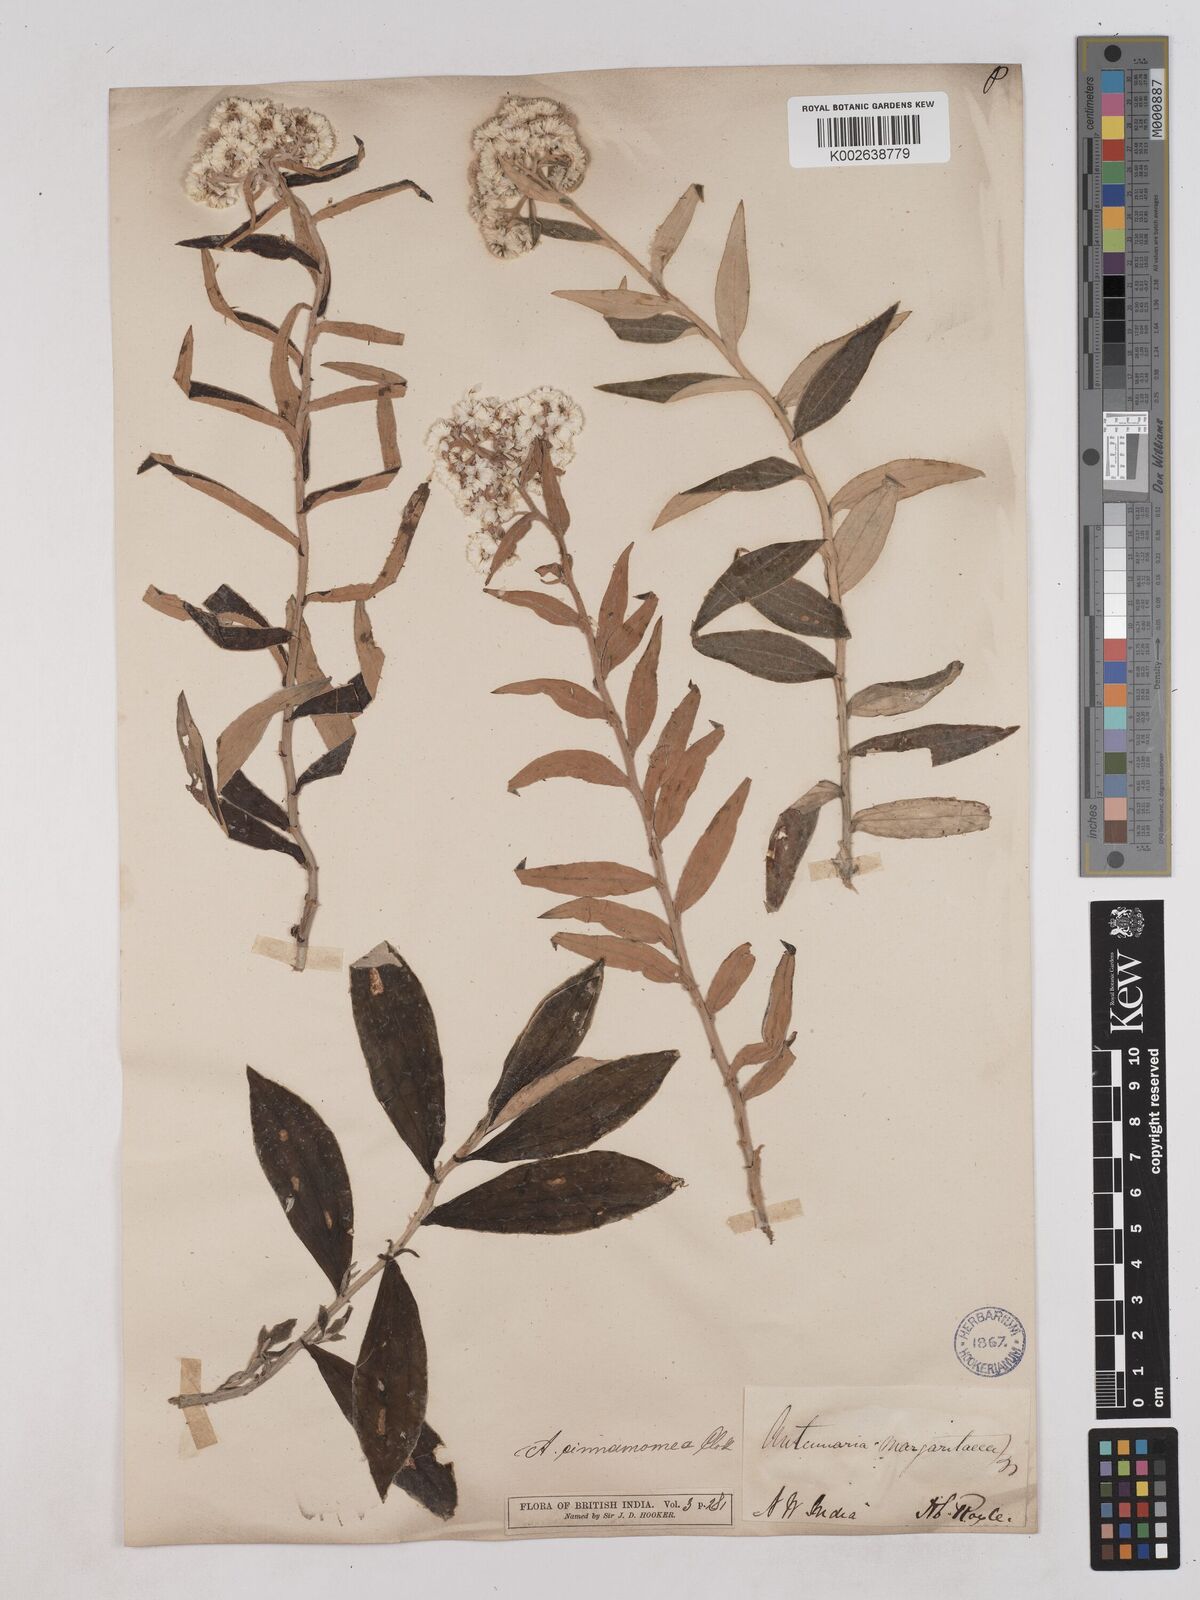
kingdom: Plantae
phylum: Tracheophyta
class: Magnoliopsida
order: Asterales
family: Asteraceae
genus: Anaphalis
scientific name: Anaphalis marcescens
